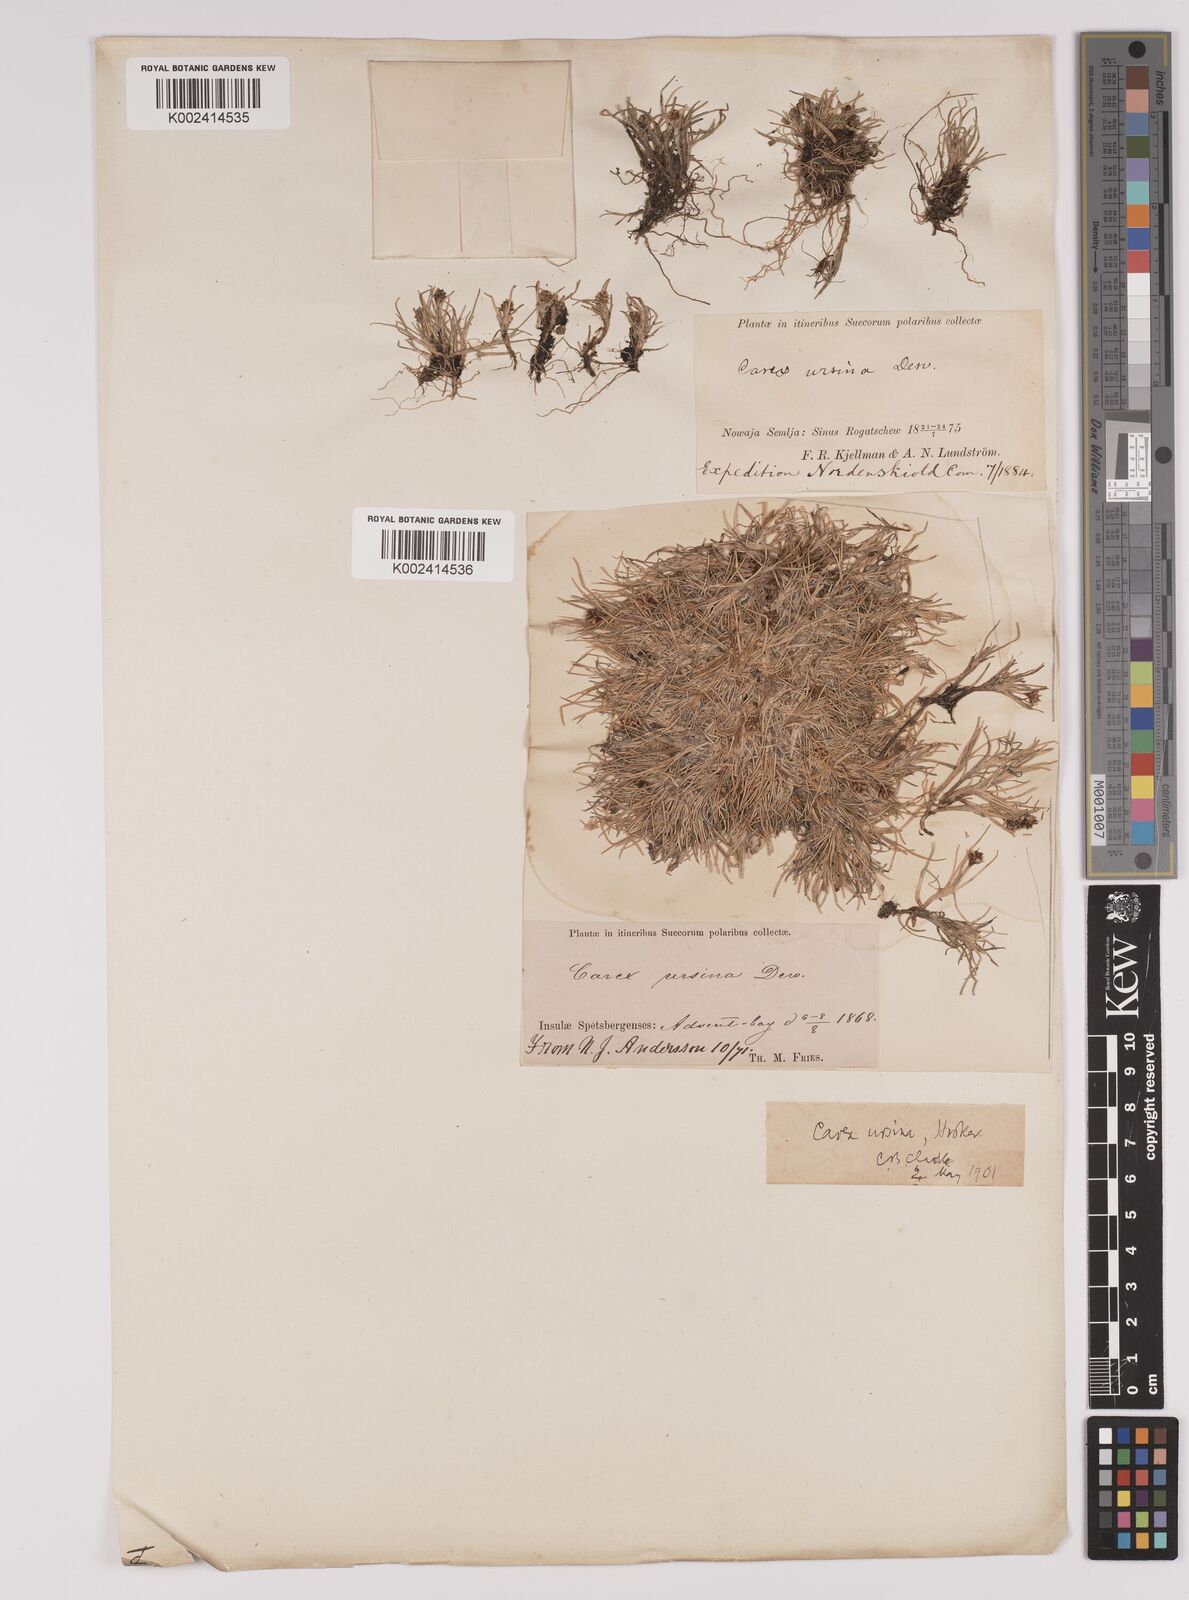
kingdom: Plantae
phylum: Tracheophyta
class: Liliopsida
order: Poales
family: Cyperaceae
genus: Carex
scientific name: Carex ursina
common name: Bear sedge
